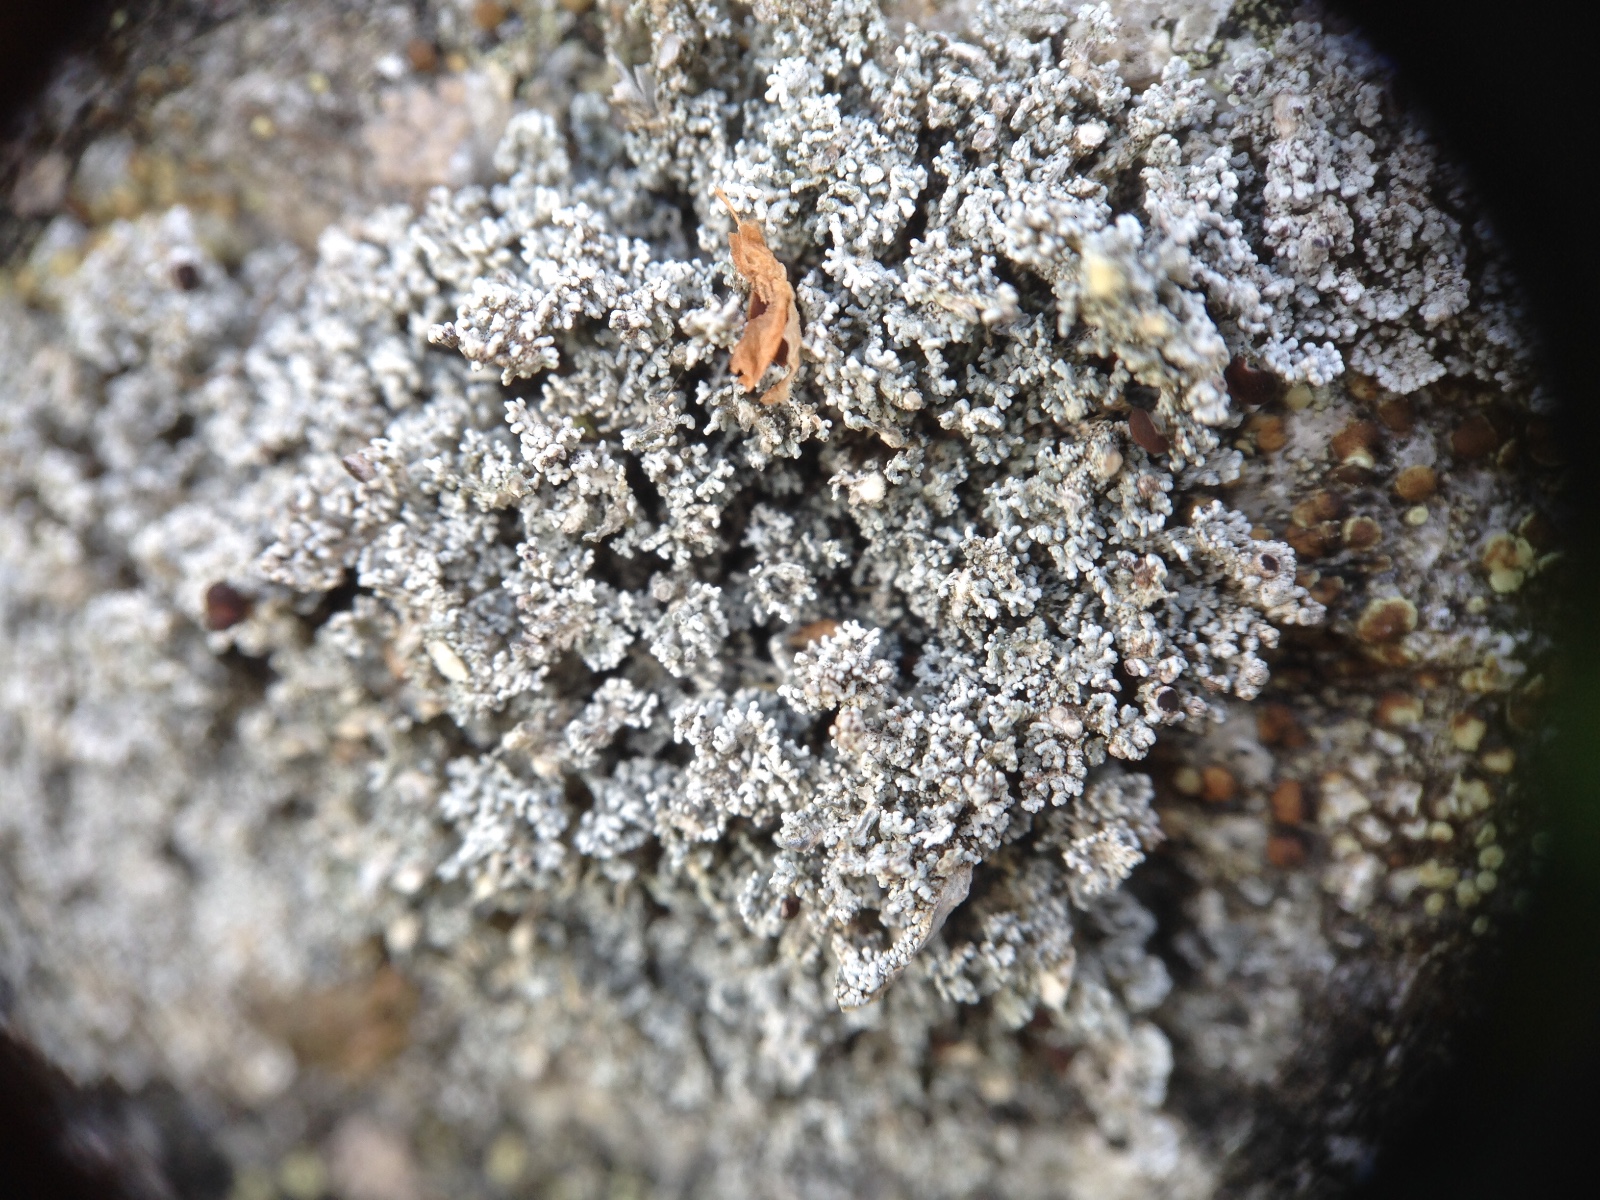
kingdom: Fungi
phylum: Ascomycota
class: Lecanoromycetes
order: Lecanorales
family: Stereocaulaceae
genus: Stereocaulon
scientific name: Stereocaulon
